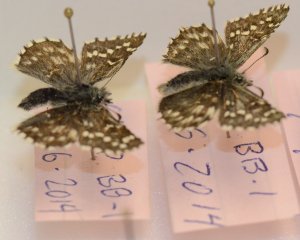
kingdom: Animalia
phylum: Arthropoda
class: Insecta
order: Lepidoptera
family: Hesperiidae
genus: Pyrgus
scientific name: Pyrgus centaureae
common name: Grizzled Skipper
